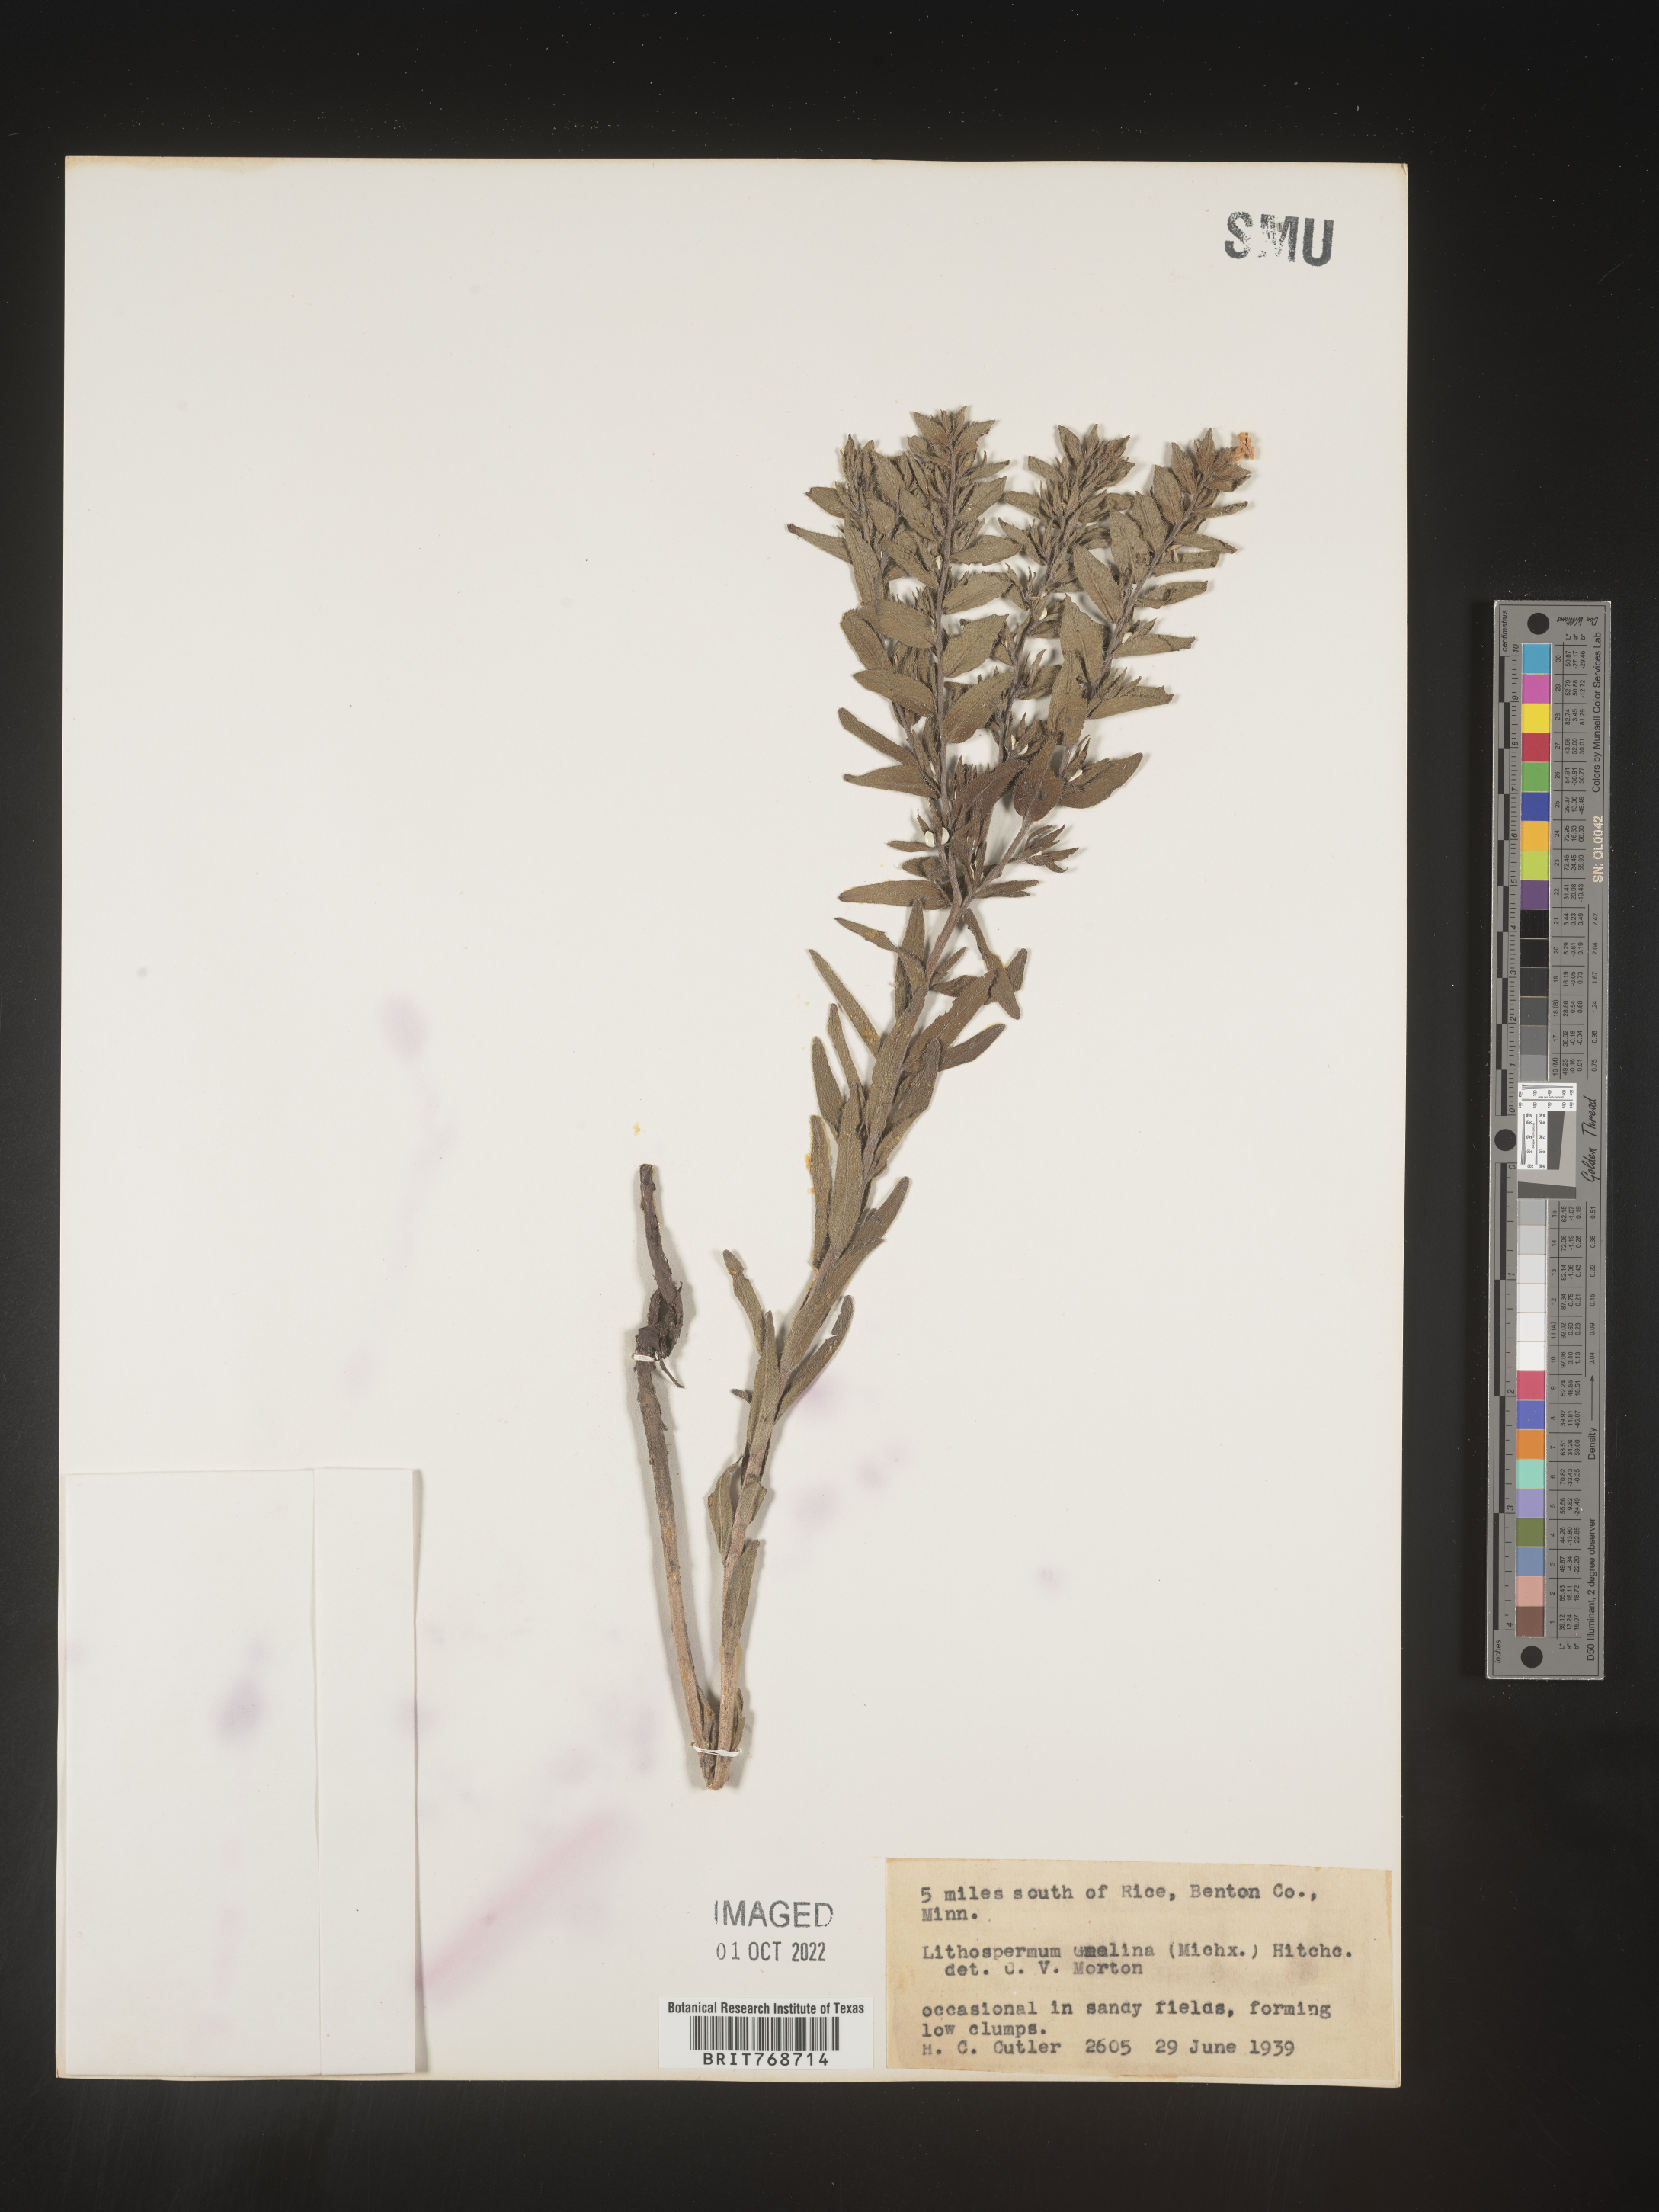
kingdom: Plantae
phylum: Tracheophyta
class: Magnoliopsida
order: Boraginales
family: Boraginaceae
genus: Lithospermum
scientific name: Lithospermum caroliniense
